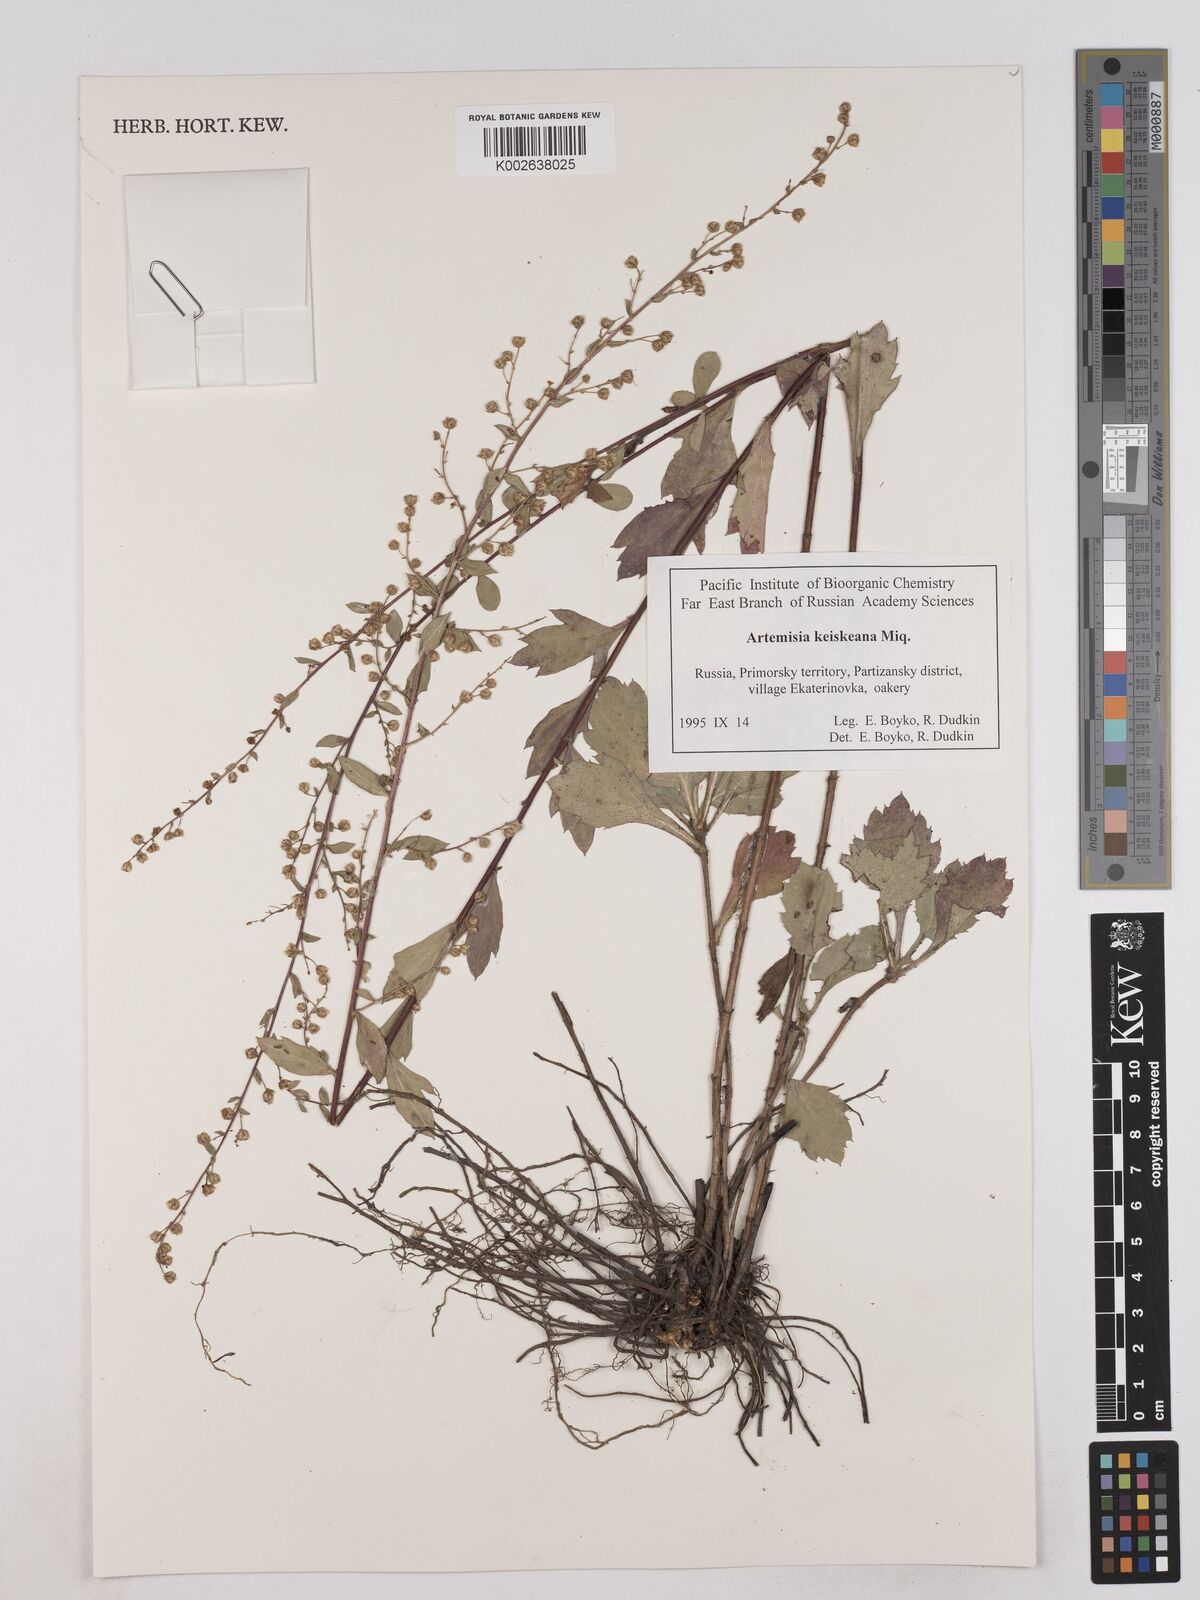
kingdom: Plantae
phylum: Tracheophyta
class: Magnoliopsida
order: Asterales
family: Asteraceae
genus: Artemisia
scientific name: Artemisia keiskeana
